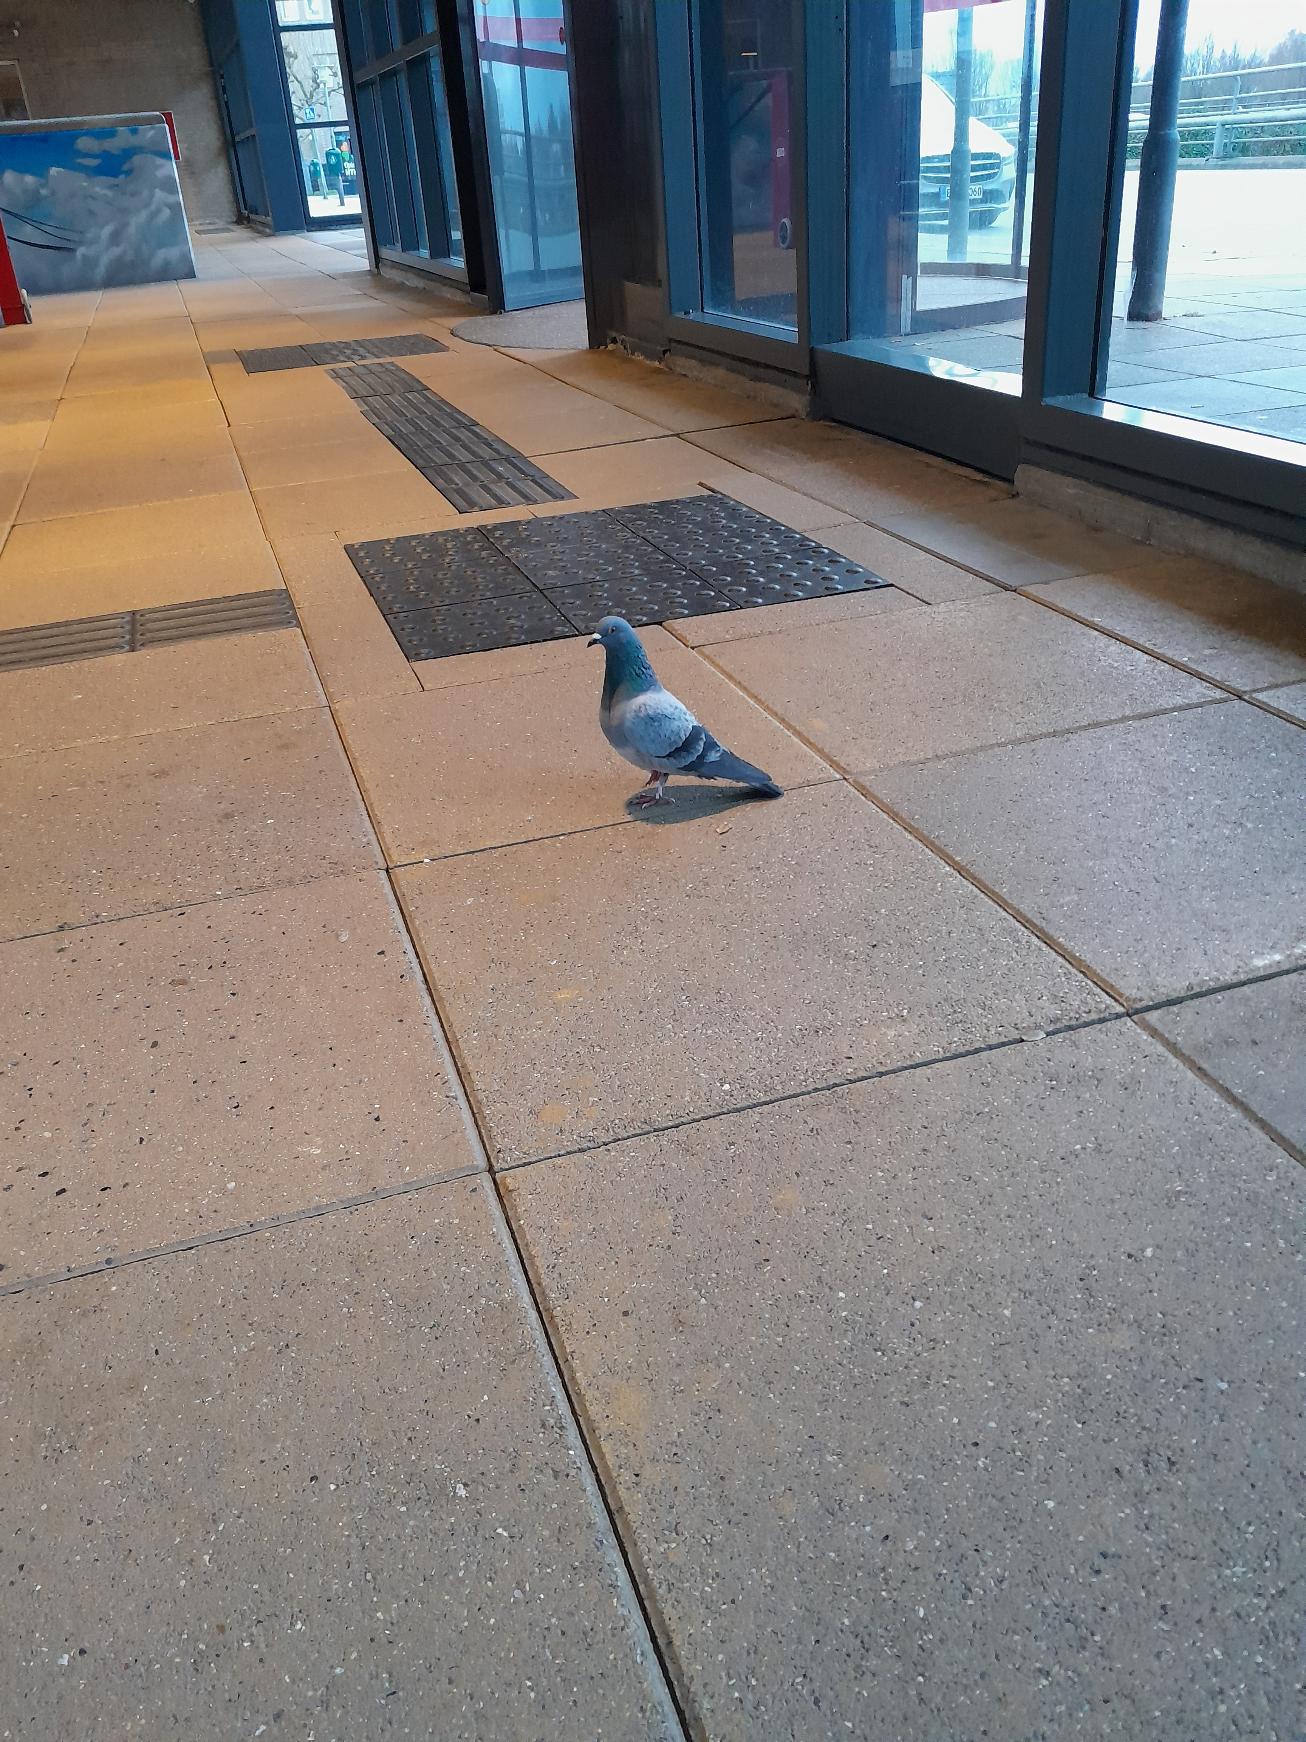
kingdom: Animalia
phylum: Chordata
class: Aves
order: Columbiformes
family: Columbidae
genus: Columba
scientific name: Columba livia
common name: Tamdue
